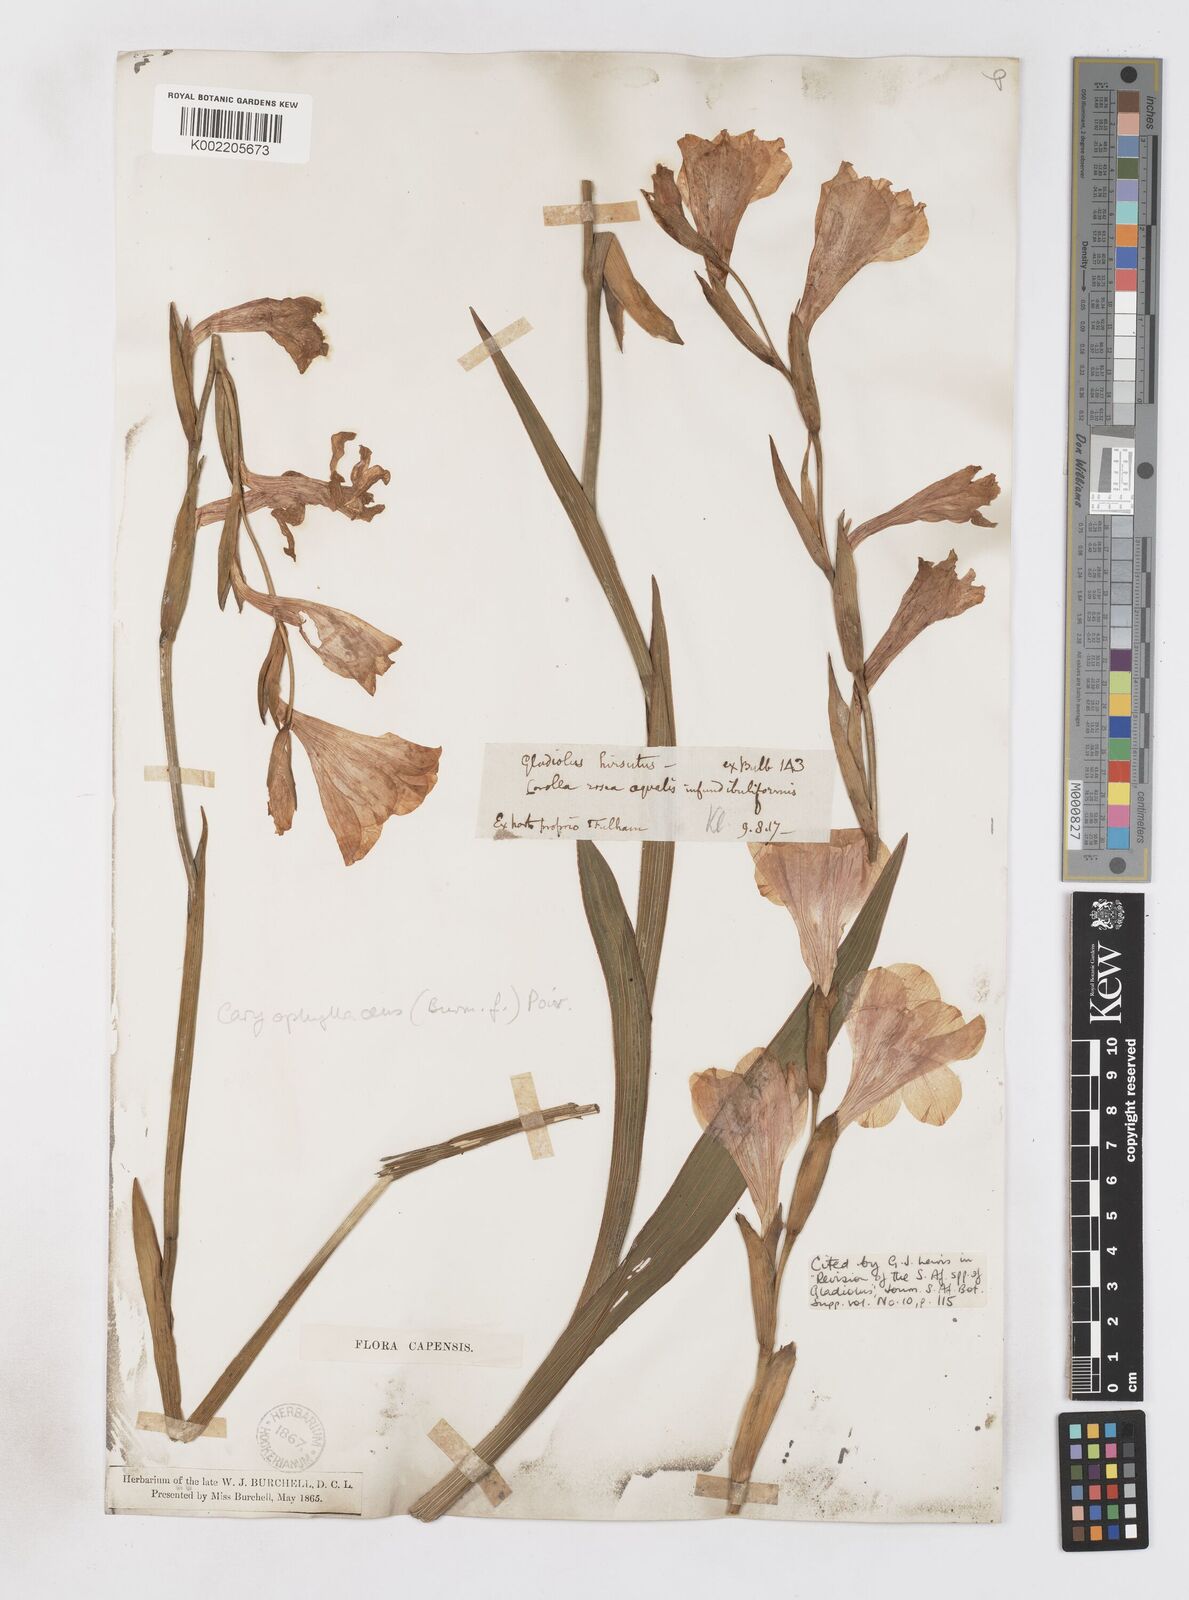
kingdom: Plantae
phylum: Tracheophyta
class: Liliopsida
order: Asparagales
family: Iridaceae
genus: Gladiolus
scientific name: Gladiolus caryophyllaceus
